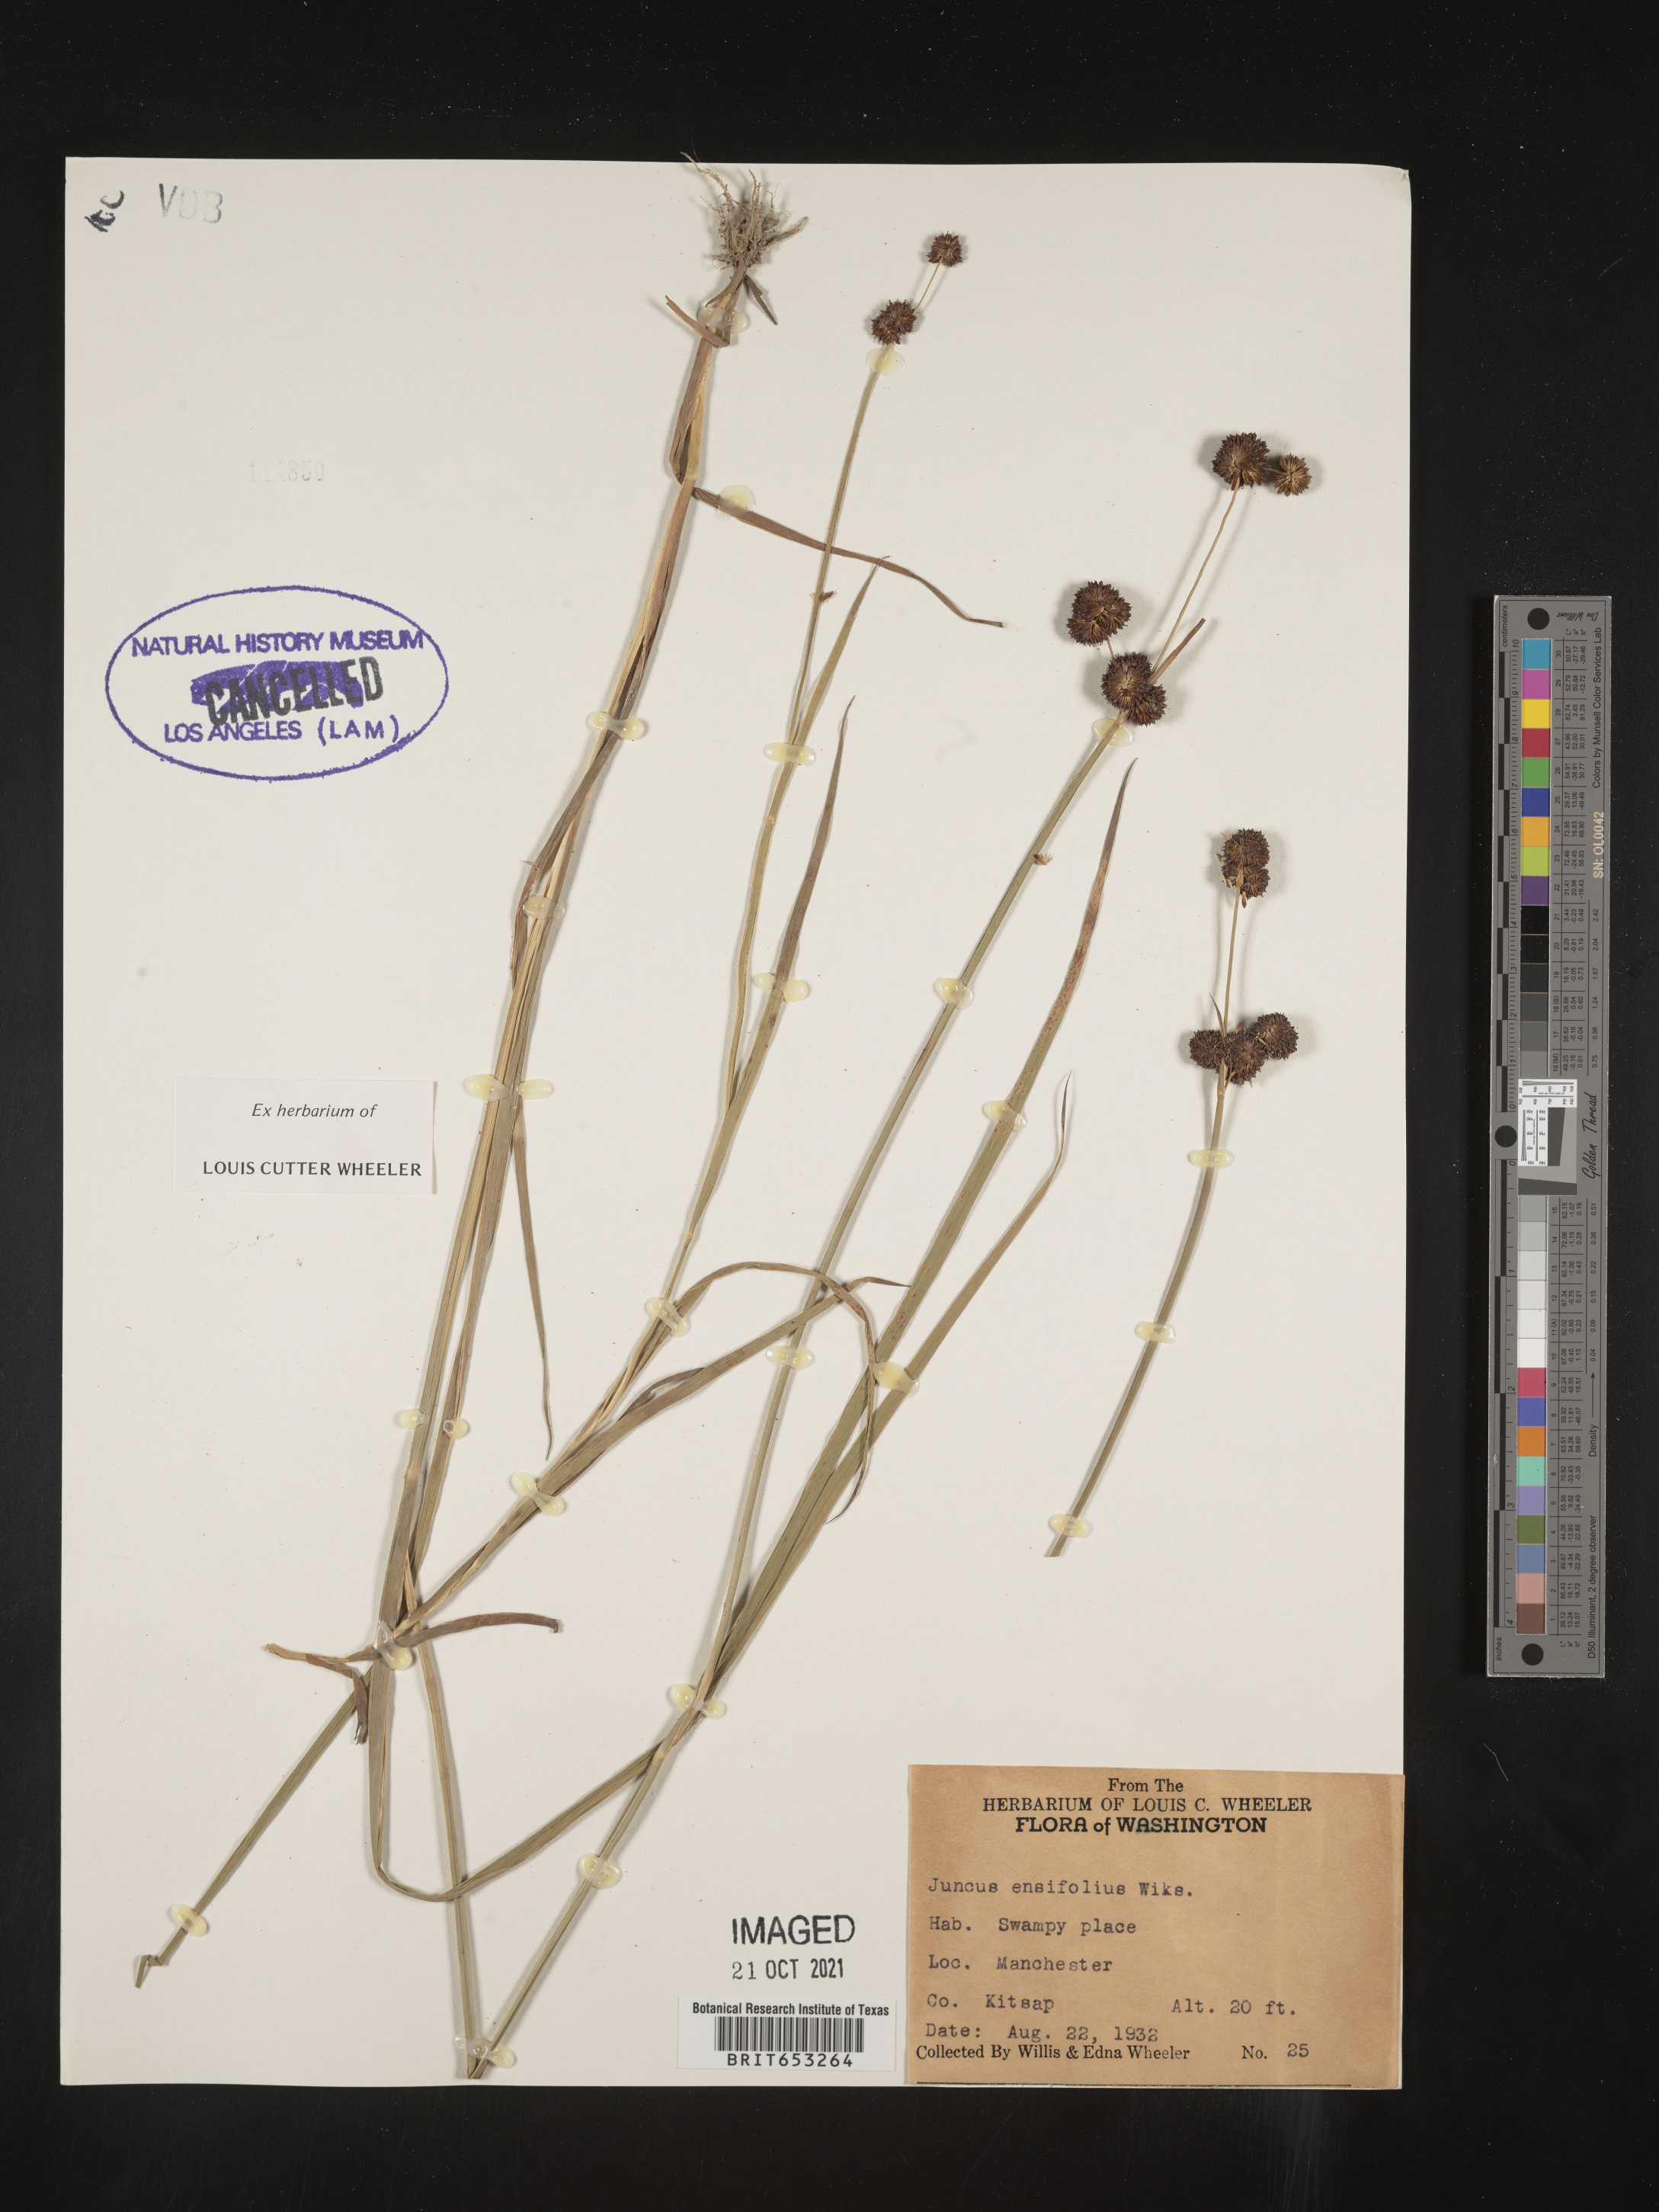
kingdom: Plantae
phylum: Tracheophyta
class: Liliopsida
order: Poales
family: Juncaceae
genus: Juncus
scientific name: Juncus ensifolius
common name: Sword-leaved rush
